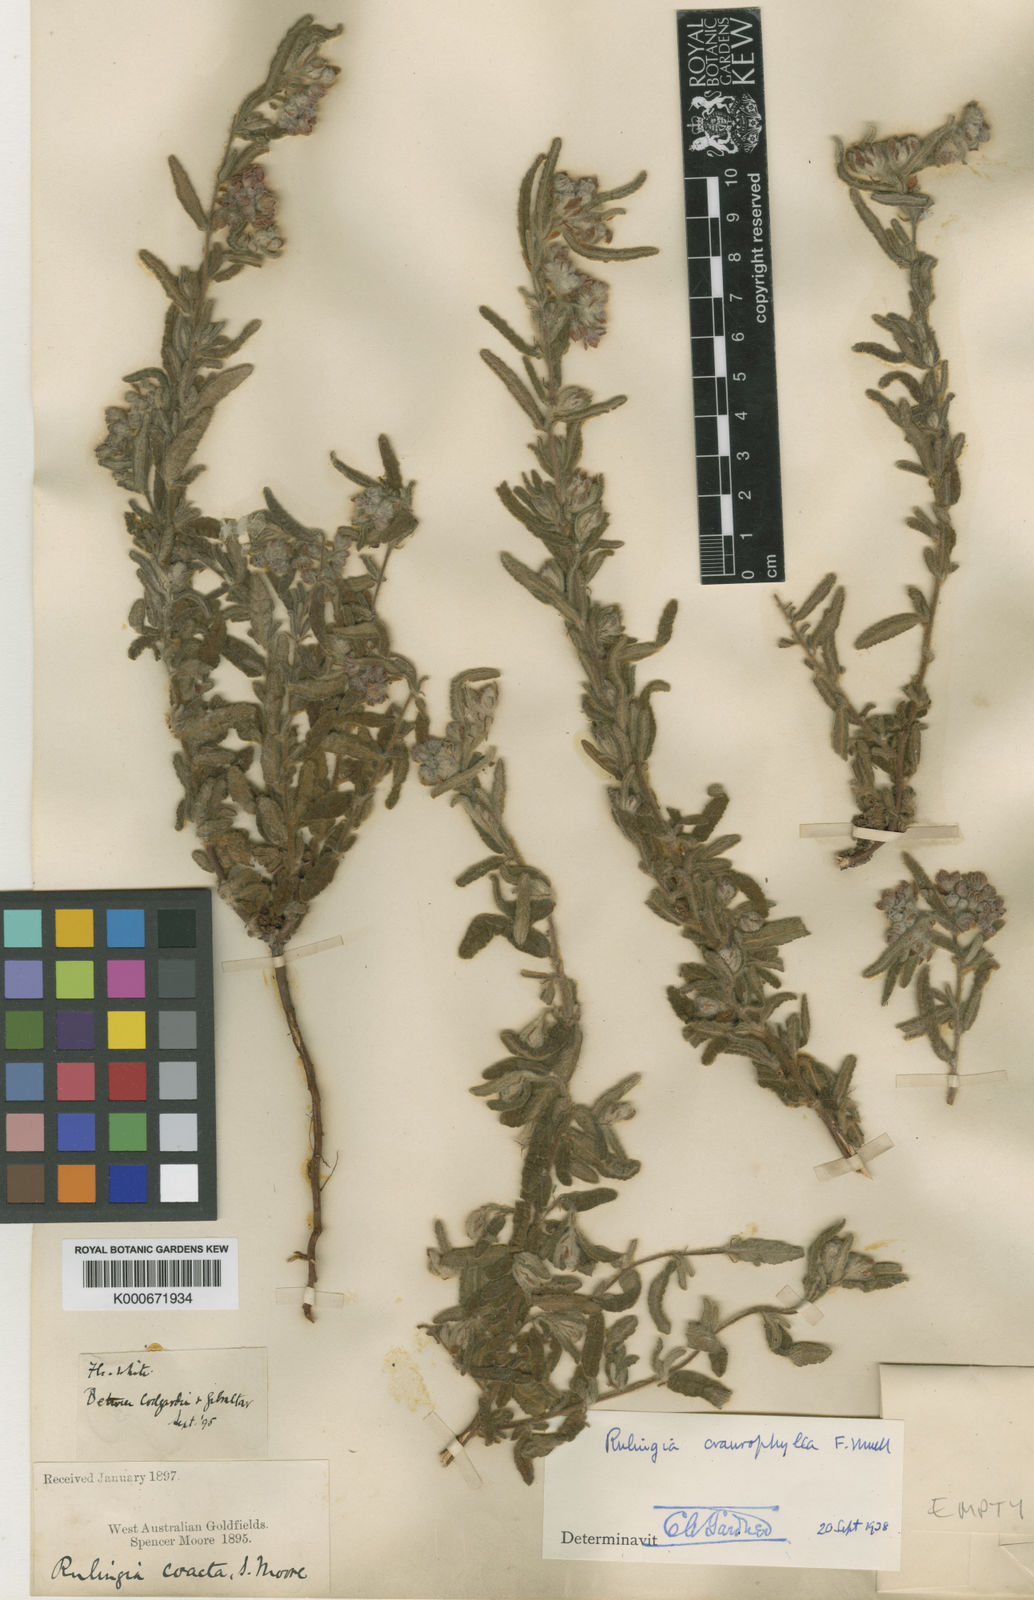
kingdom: Plantae
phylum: Tracheophyta
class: Magnoliopsida
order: Malvales
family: Malvaceae
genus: Commersonia
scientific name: Commersonia craurophylla
